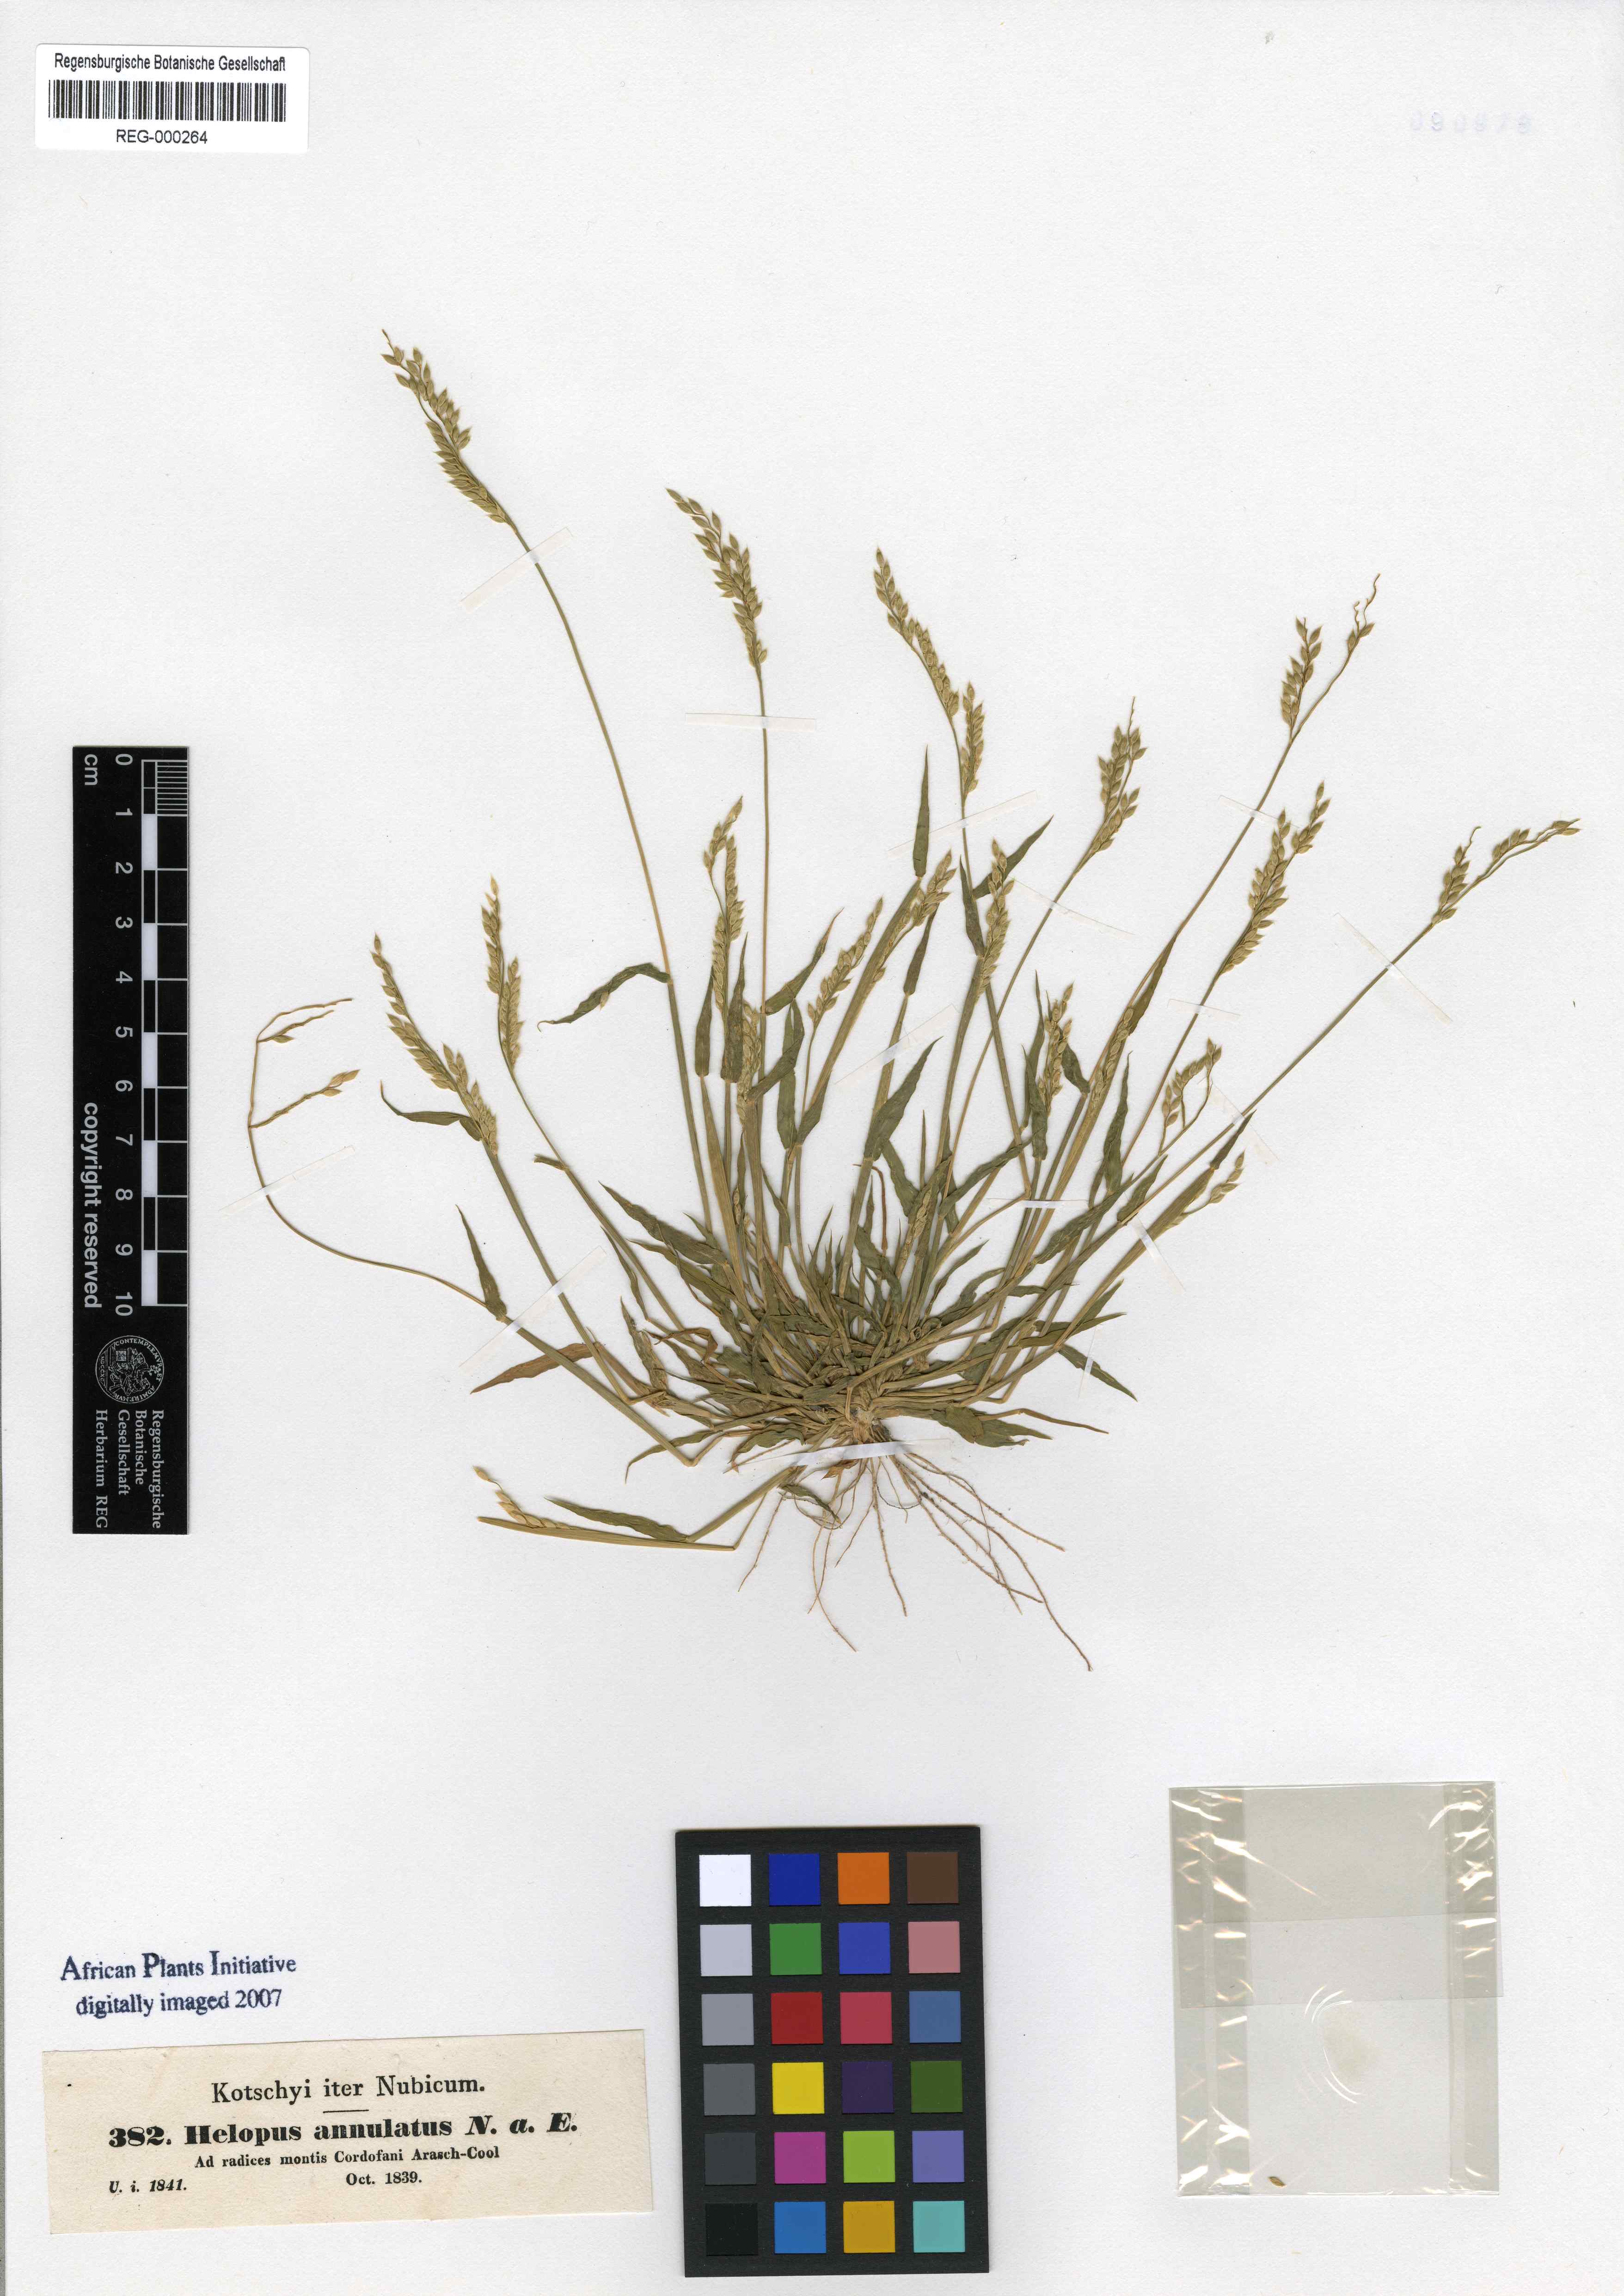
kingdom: Plantae
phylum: Tracheophyta
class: Liliopsida
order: Poales
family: Poaceae
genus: Eriochloa
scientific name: Eriochloa
